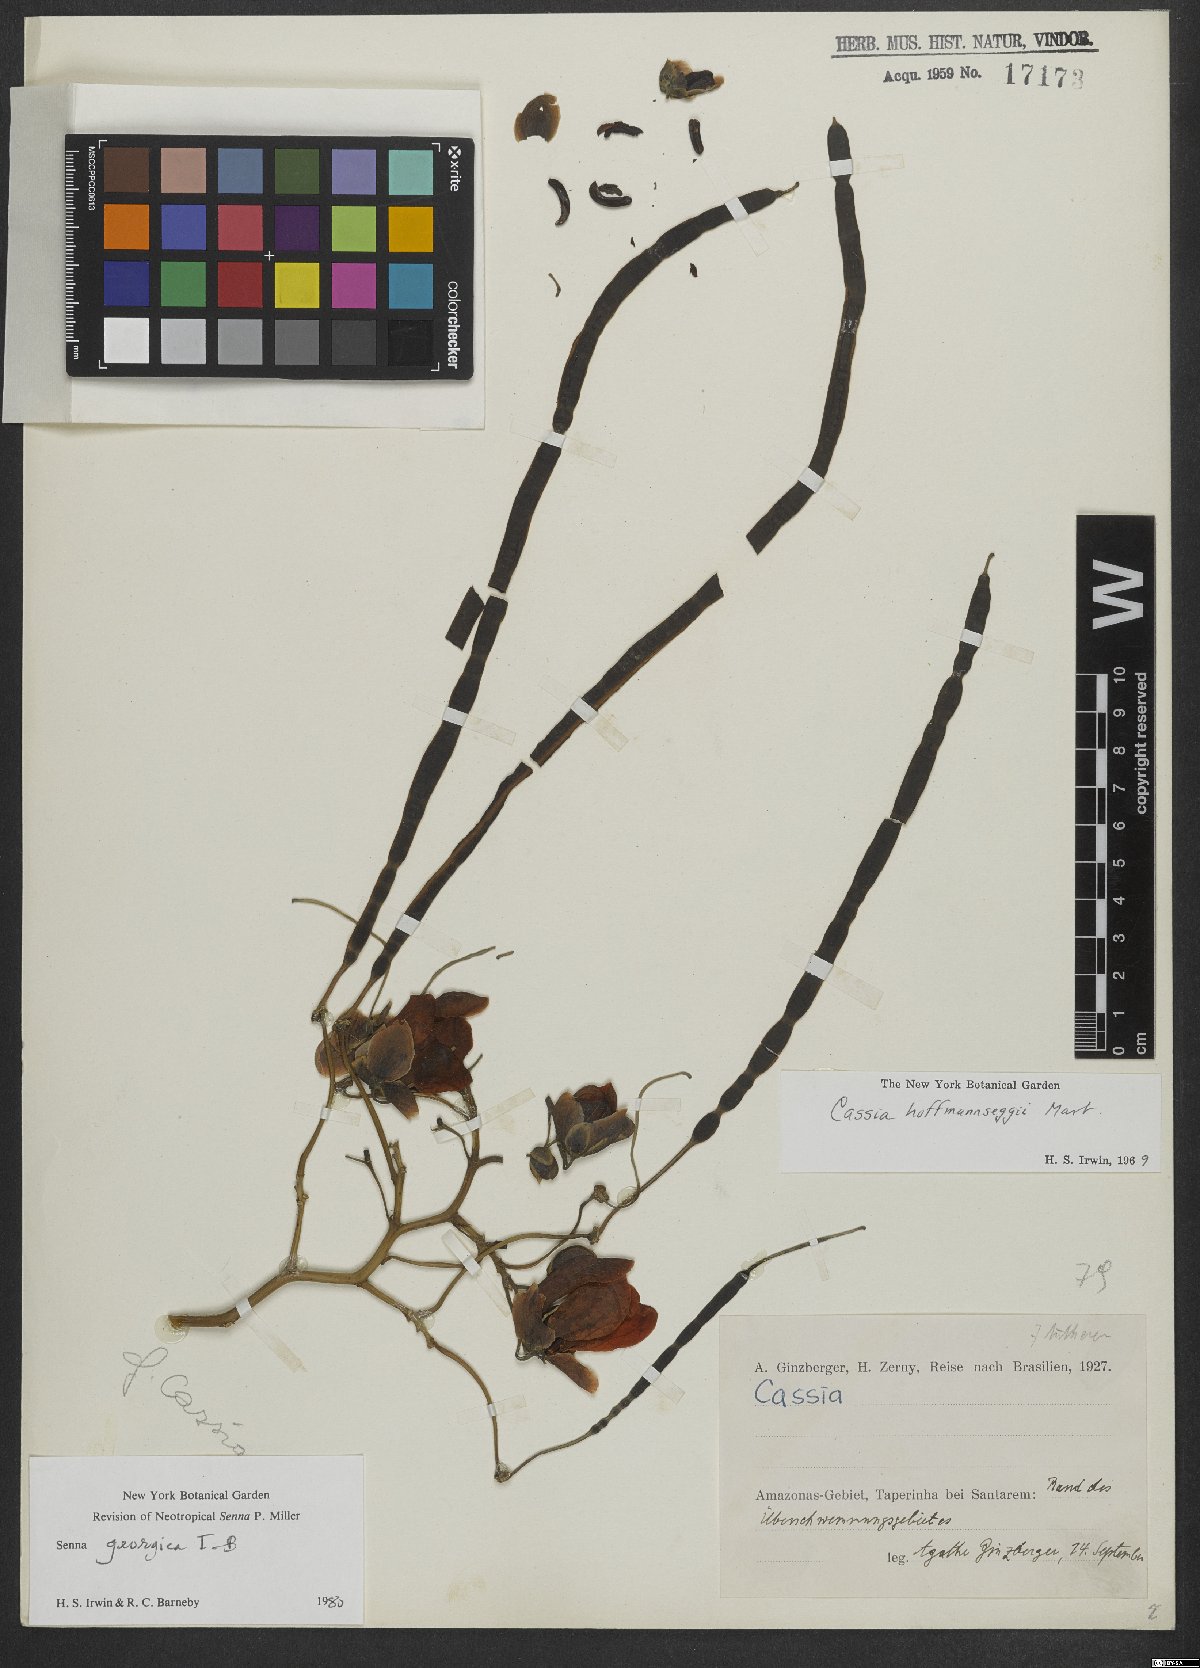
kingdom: Plantae
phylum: Tracheophyta
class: Magnoliopsida
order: Fabales
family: Fabaceae
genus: Senna
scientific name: Senna georgica
